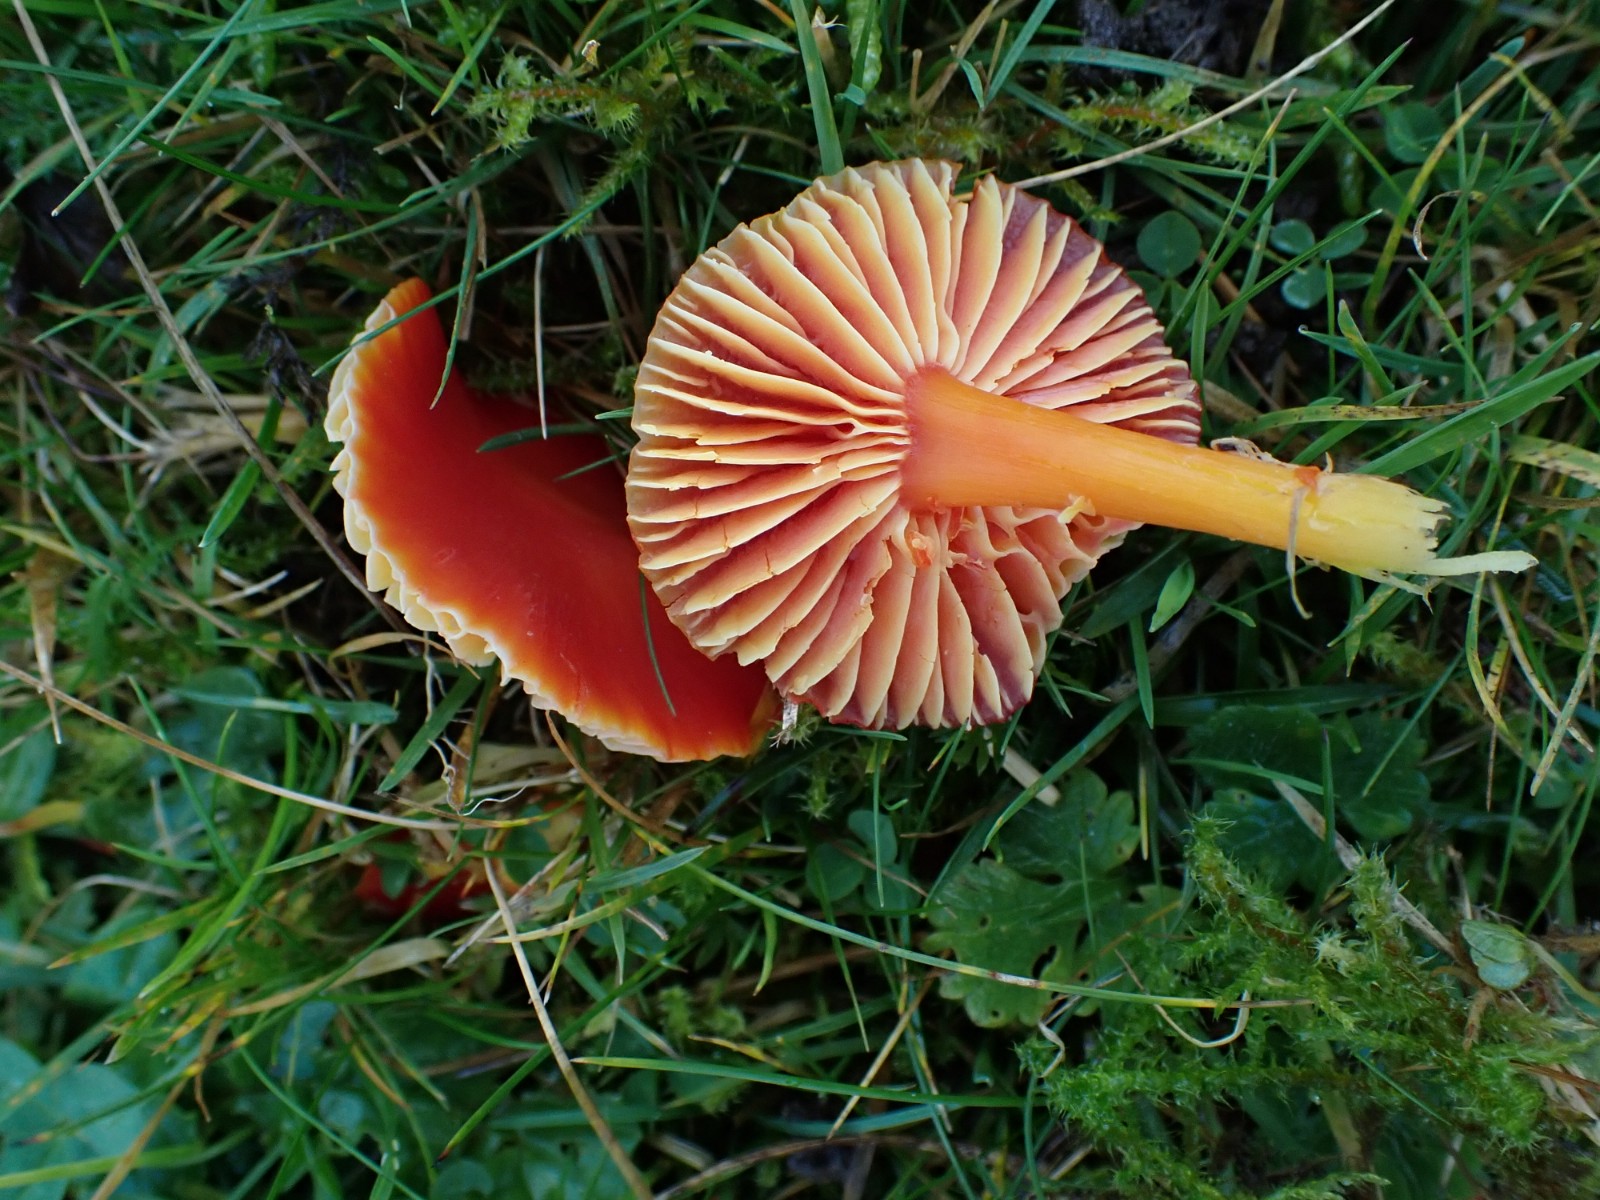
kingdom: Fungi
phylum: Basidiomycota
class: Agaricomycetes
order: Agaricales
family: Hygrophoraceae
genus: Hygrocybe
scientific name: Hygrocybe coccinea
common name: cinnober-vokshat
